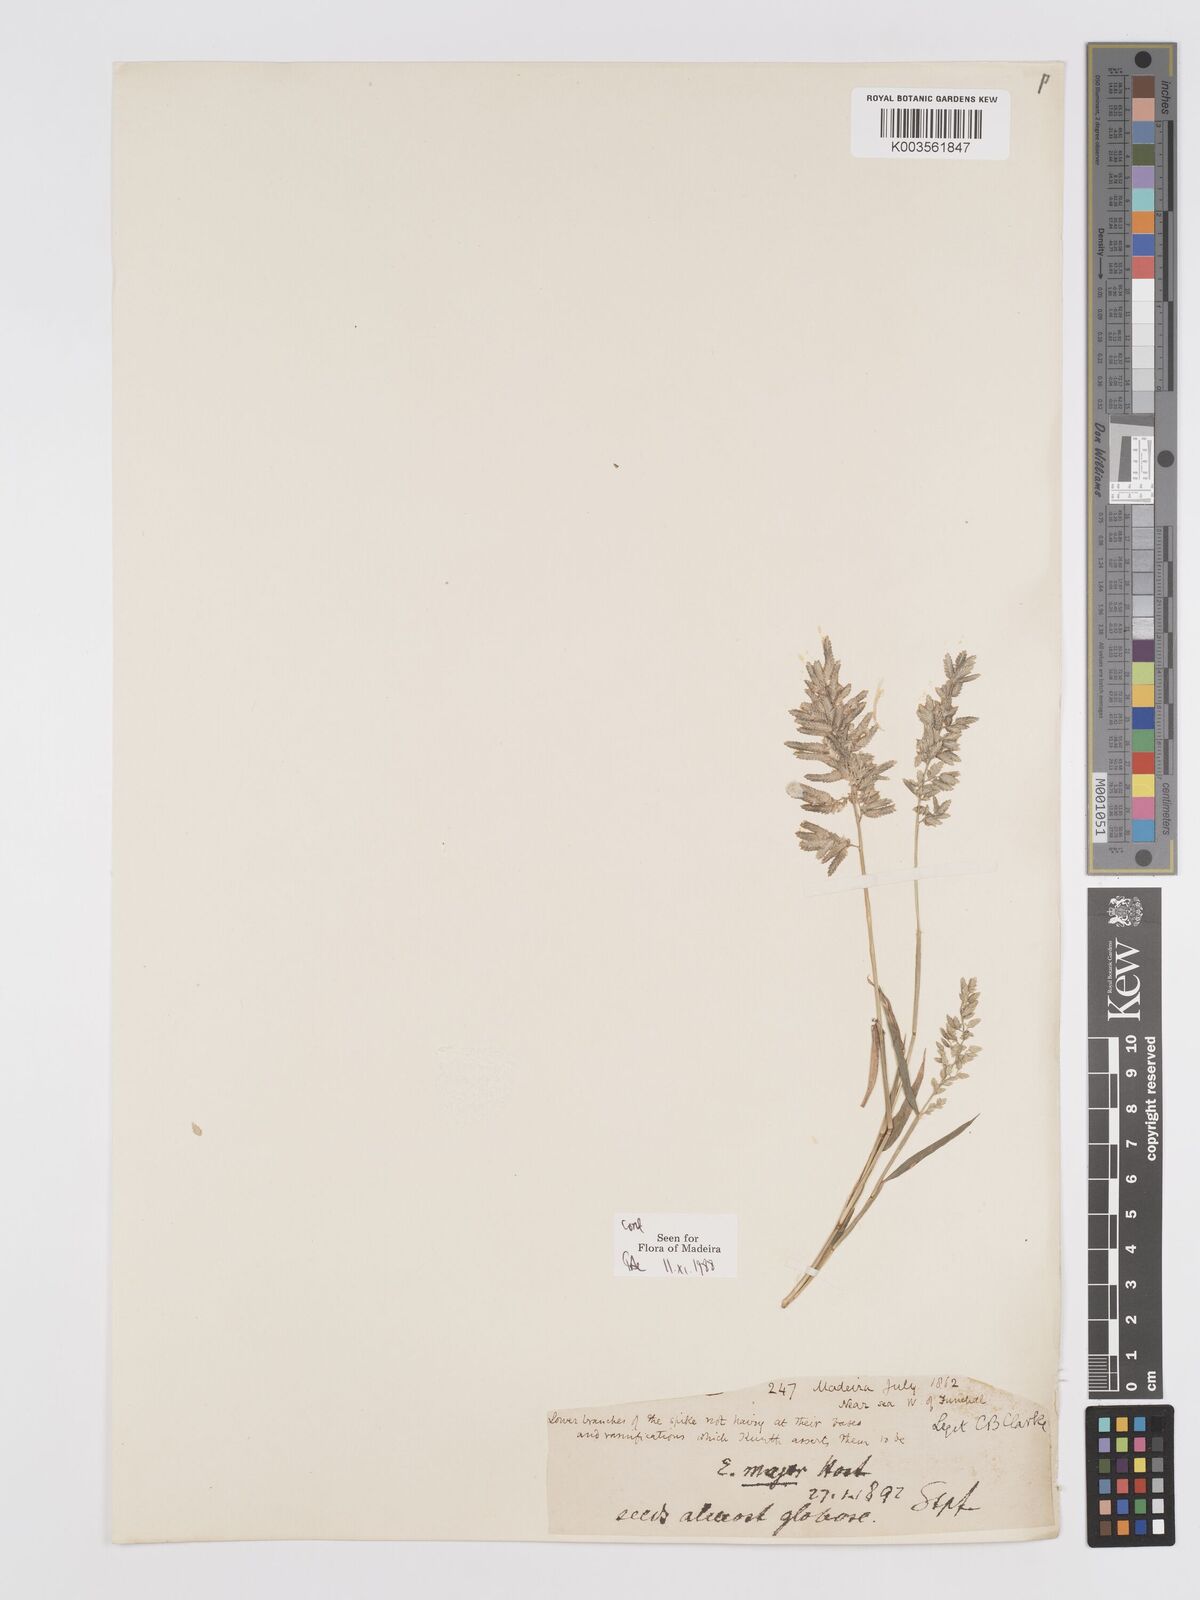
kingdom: Plantae
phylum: Tracheophyta
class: Liliopsida
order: Poales
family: Poaceae
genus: Eragrostis
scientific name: Eragrostis cilianensis
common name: Stinkgrass
